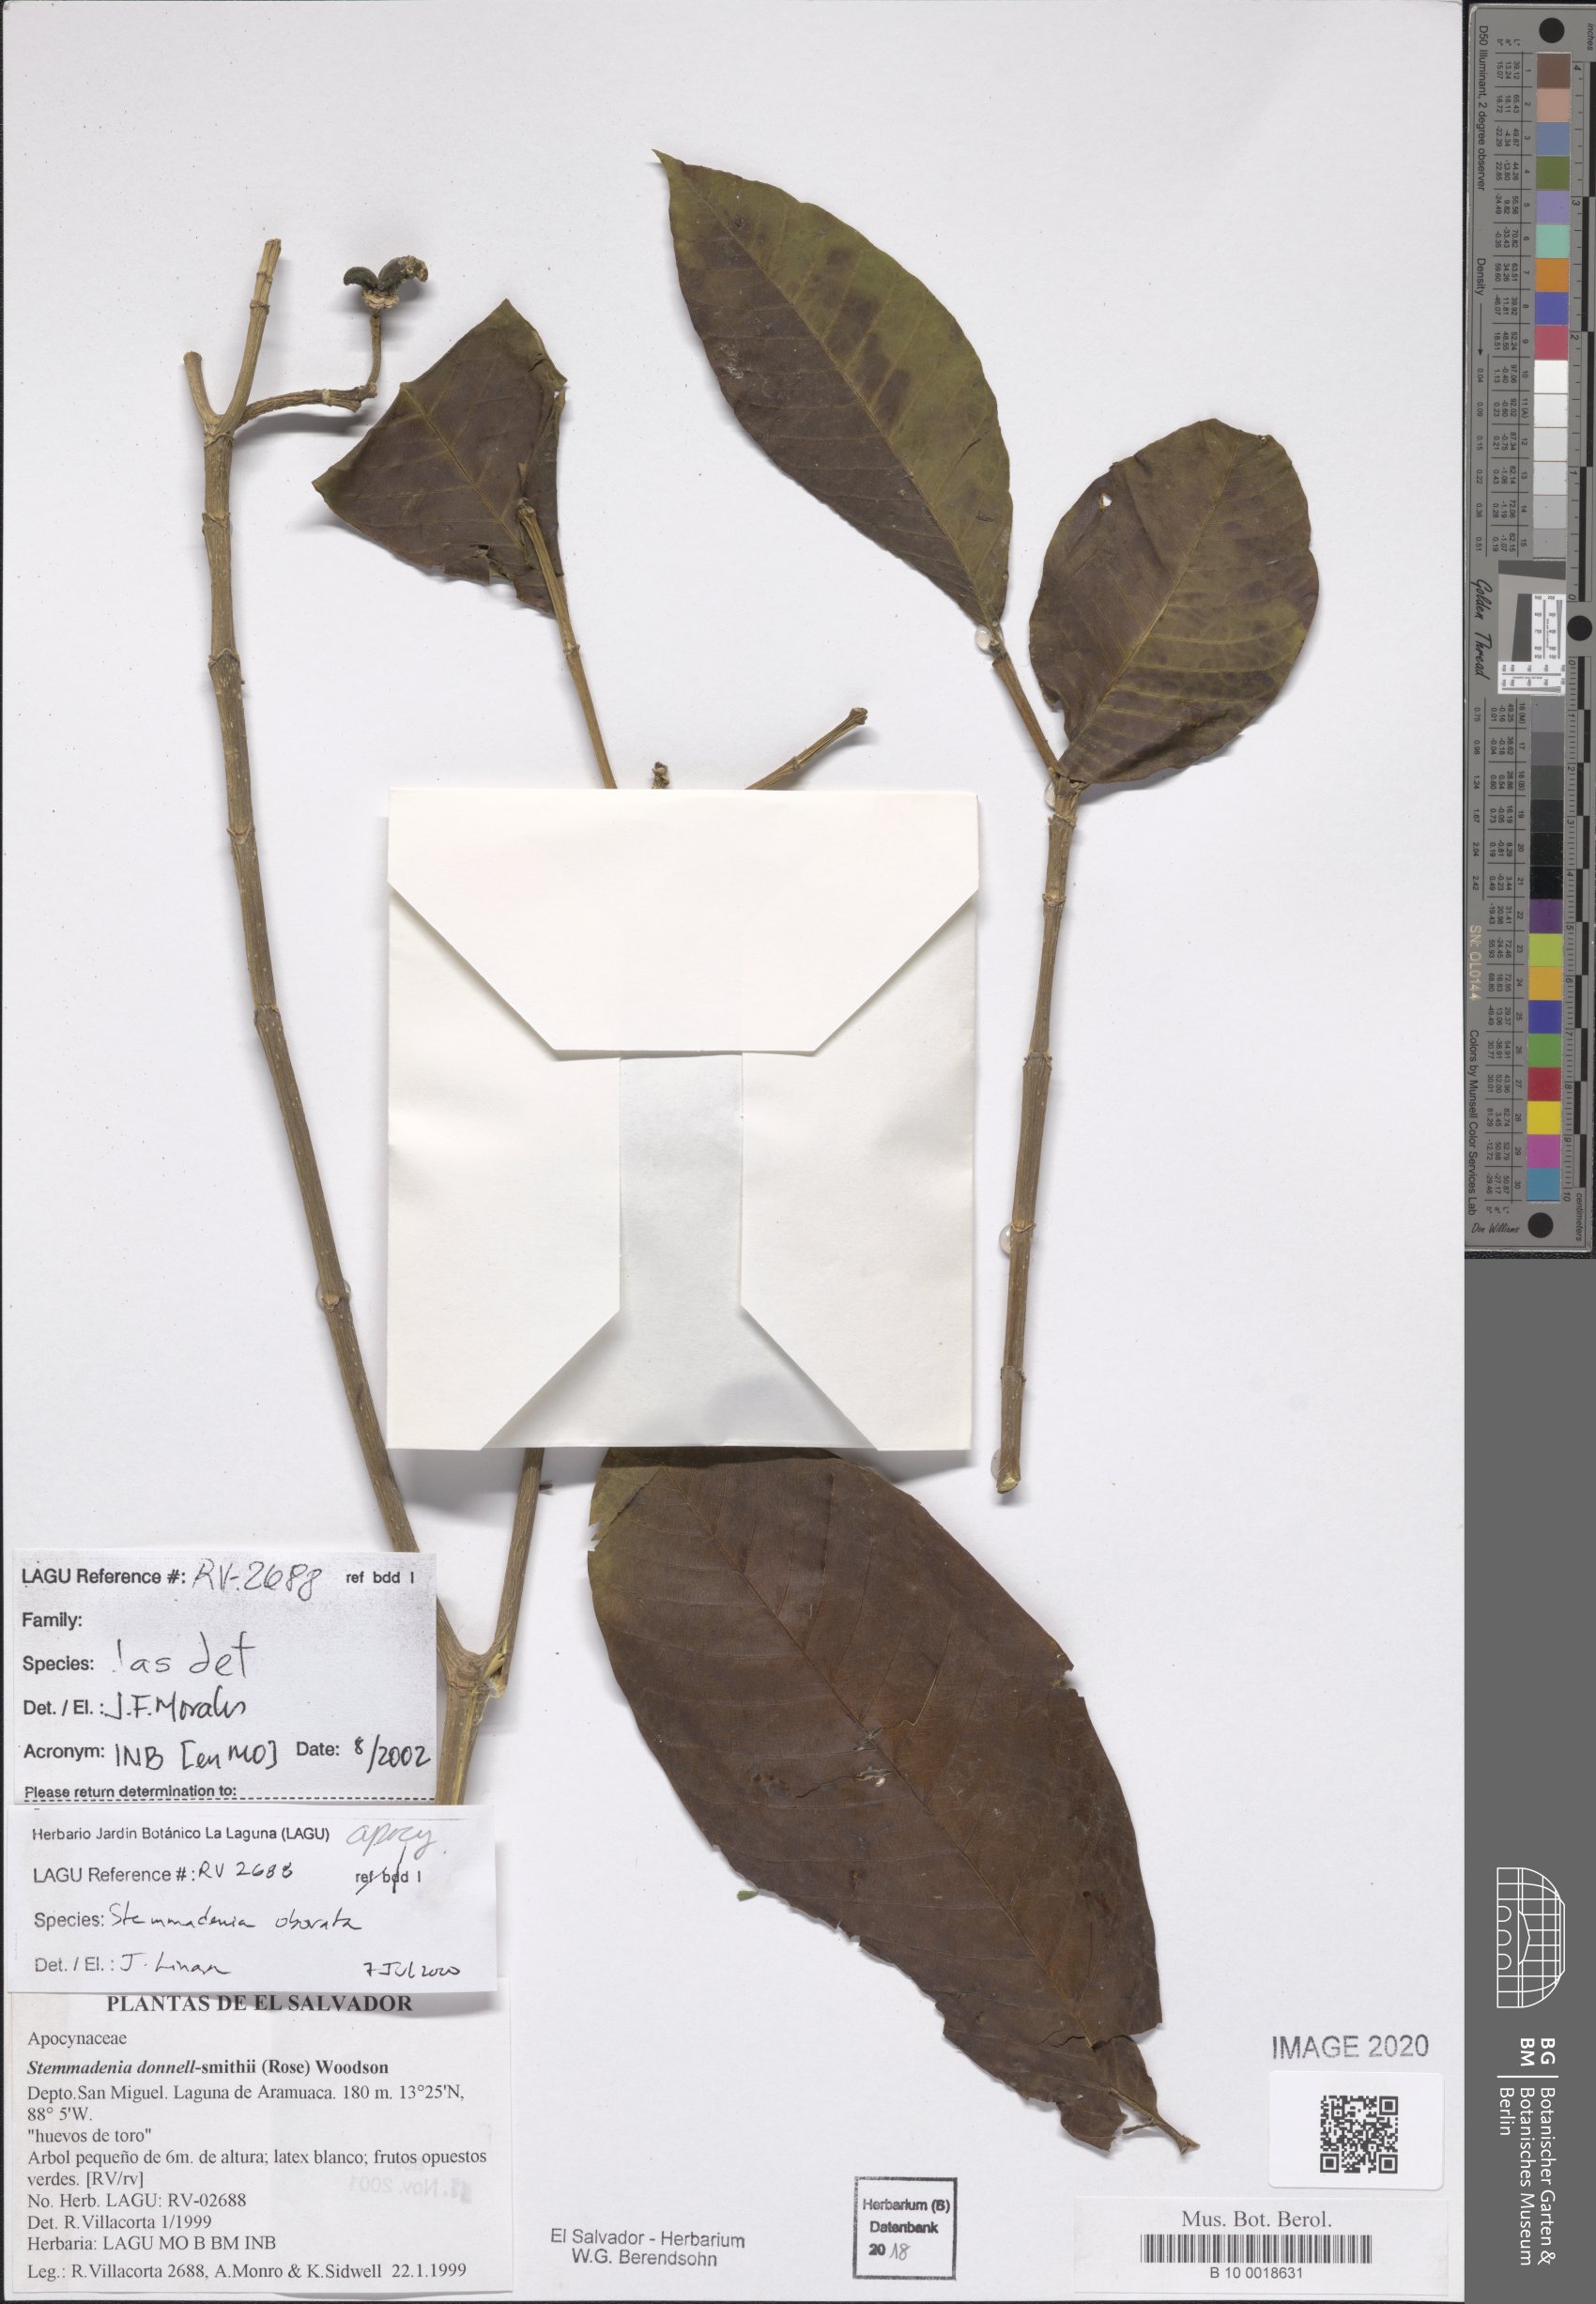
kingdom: Plantae
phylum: Tracheophyta
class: Magnoliopsida
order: Gentianales
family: Apocynaceae
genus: Tabernaemontana
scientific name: Tabernaemontana glabra
